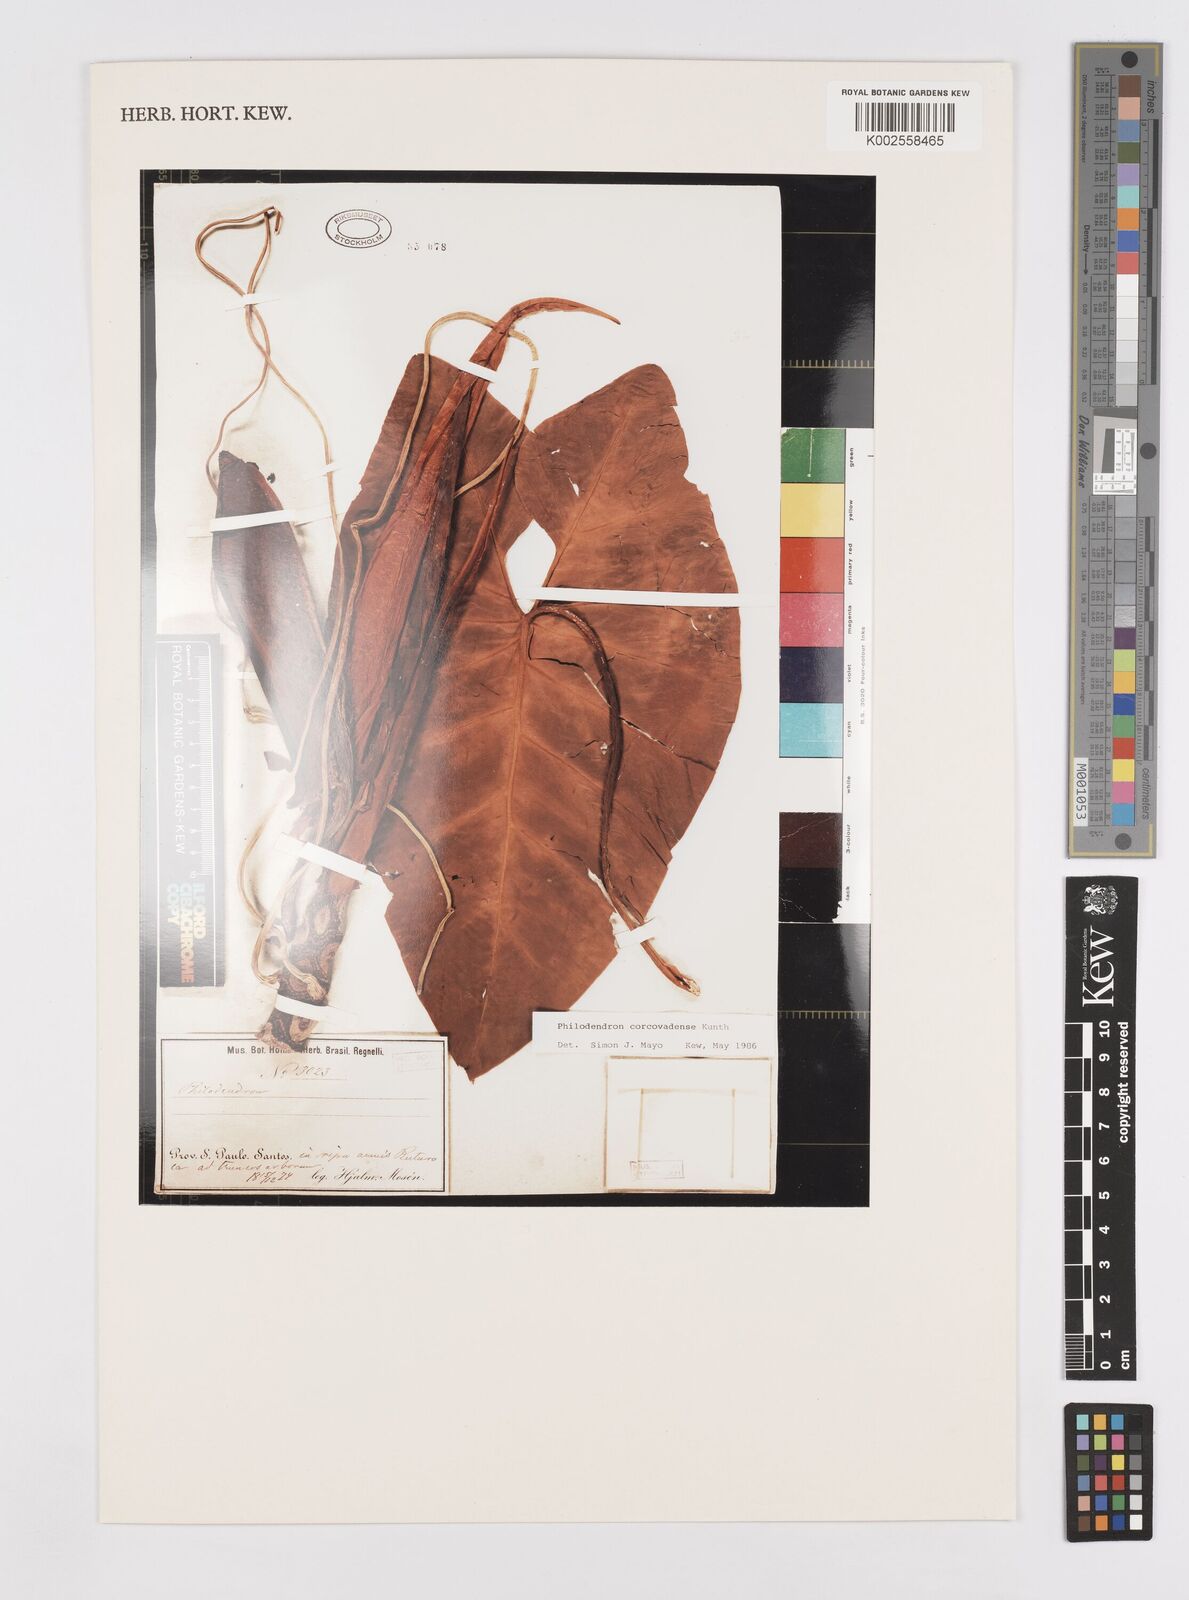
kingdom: Plantae
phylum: Tracheophyta
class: Liliopsida
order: Alismatales
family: Araceae
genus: Thaumatophyllum
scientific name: Thaumatophyllum corcovadense
